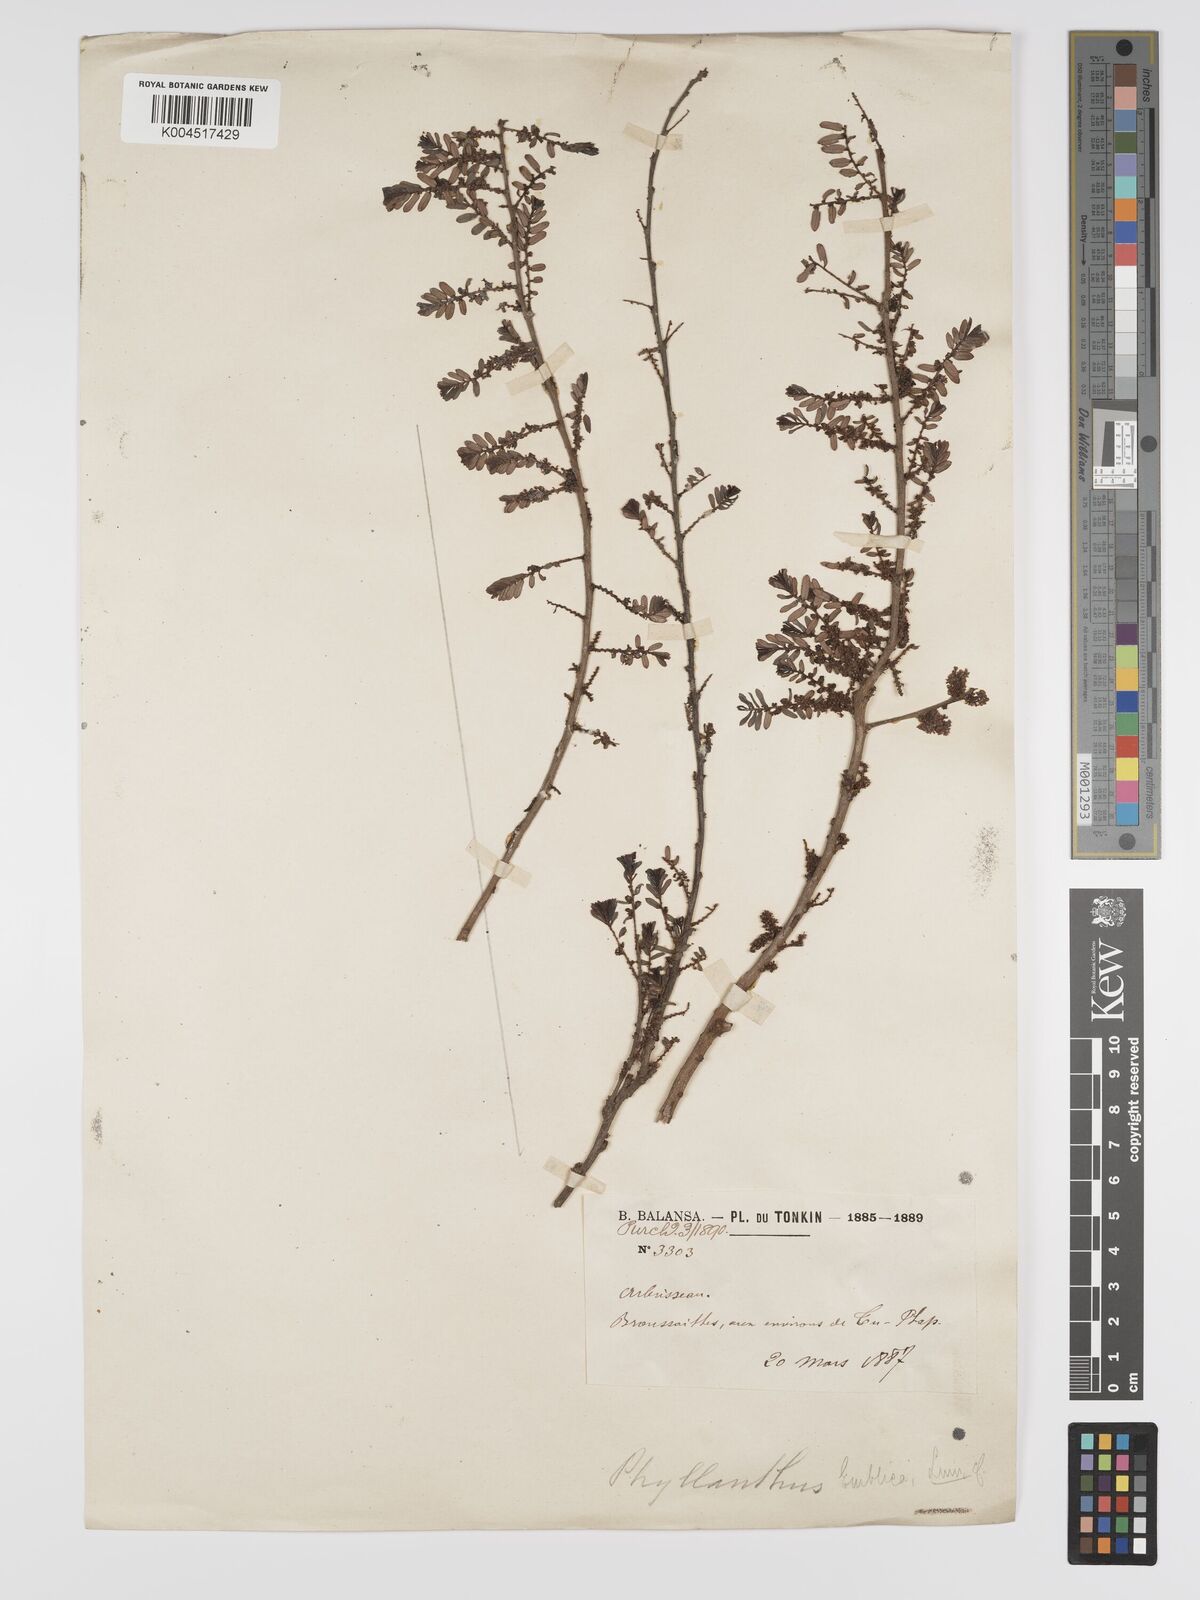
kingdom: Plantae
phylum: Tracheophyta
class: Magnoliopsida
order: Malpighiales
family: Phyllanthaceae
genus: Phyllanthus
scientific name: Phyllanthus emblica
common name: Indian gooseberry
